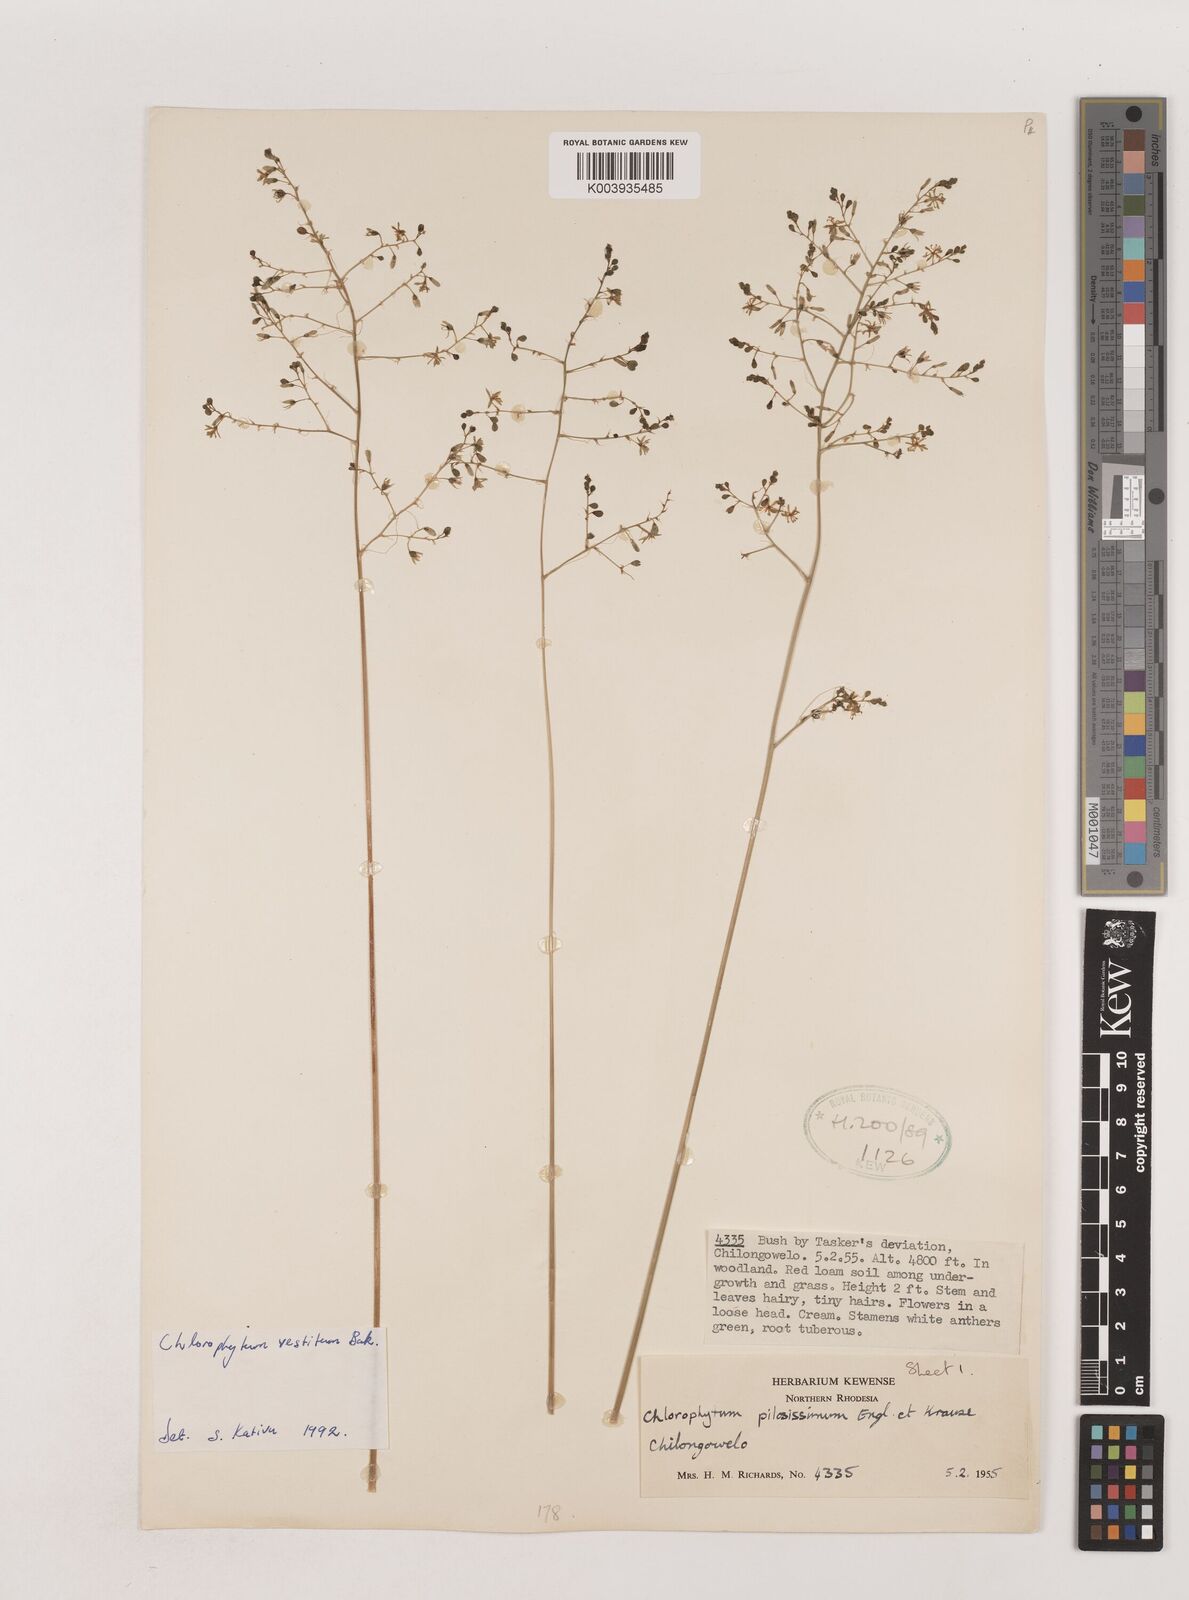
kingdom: Plantae
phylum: Tracheophyta
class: Liliopsida
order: Asparagales
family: Asparagaceae
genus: Chlorophytum
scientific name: Chlorophytum vestitum
